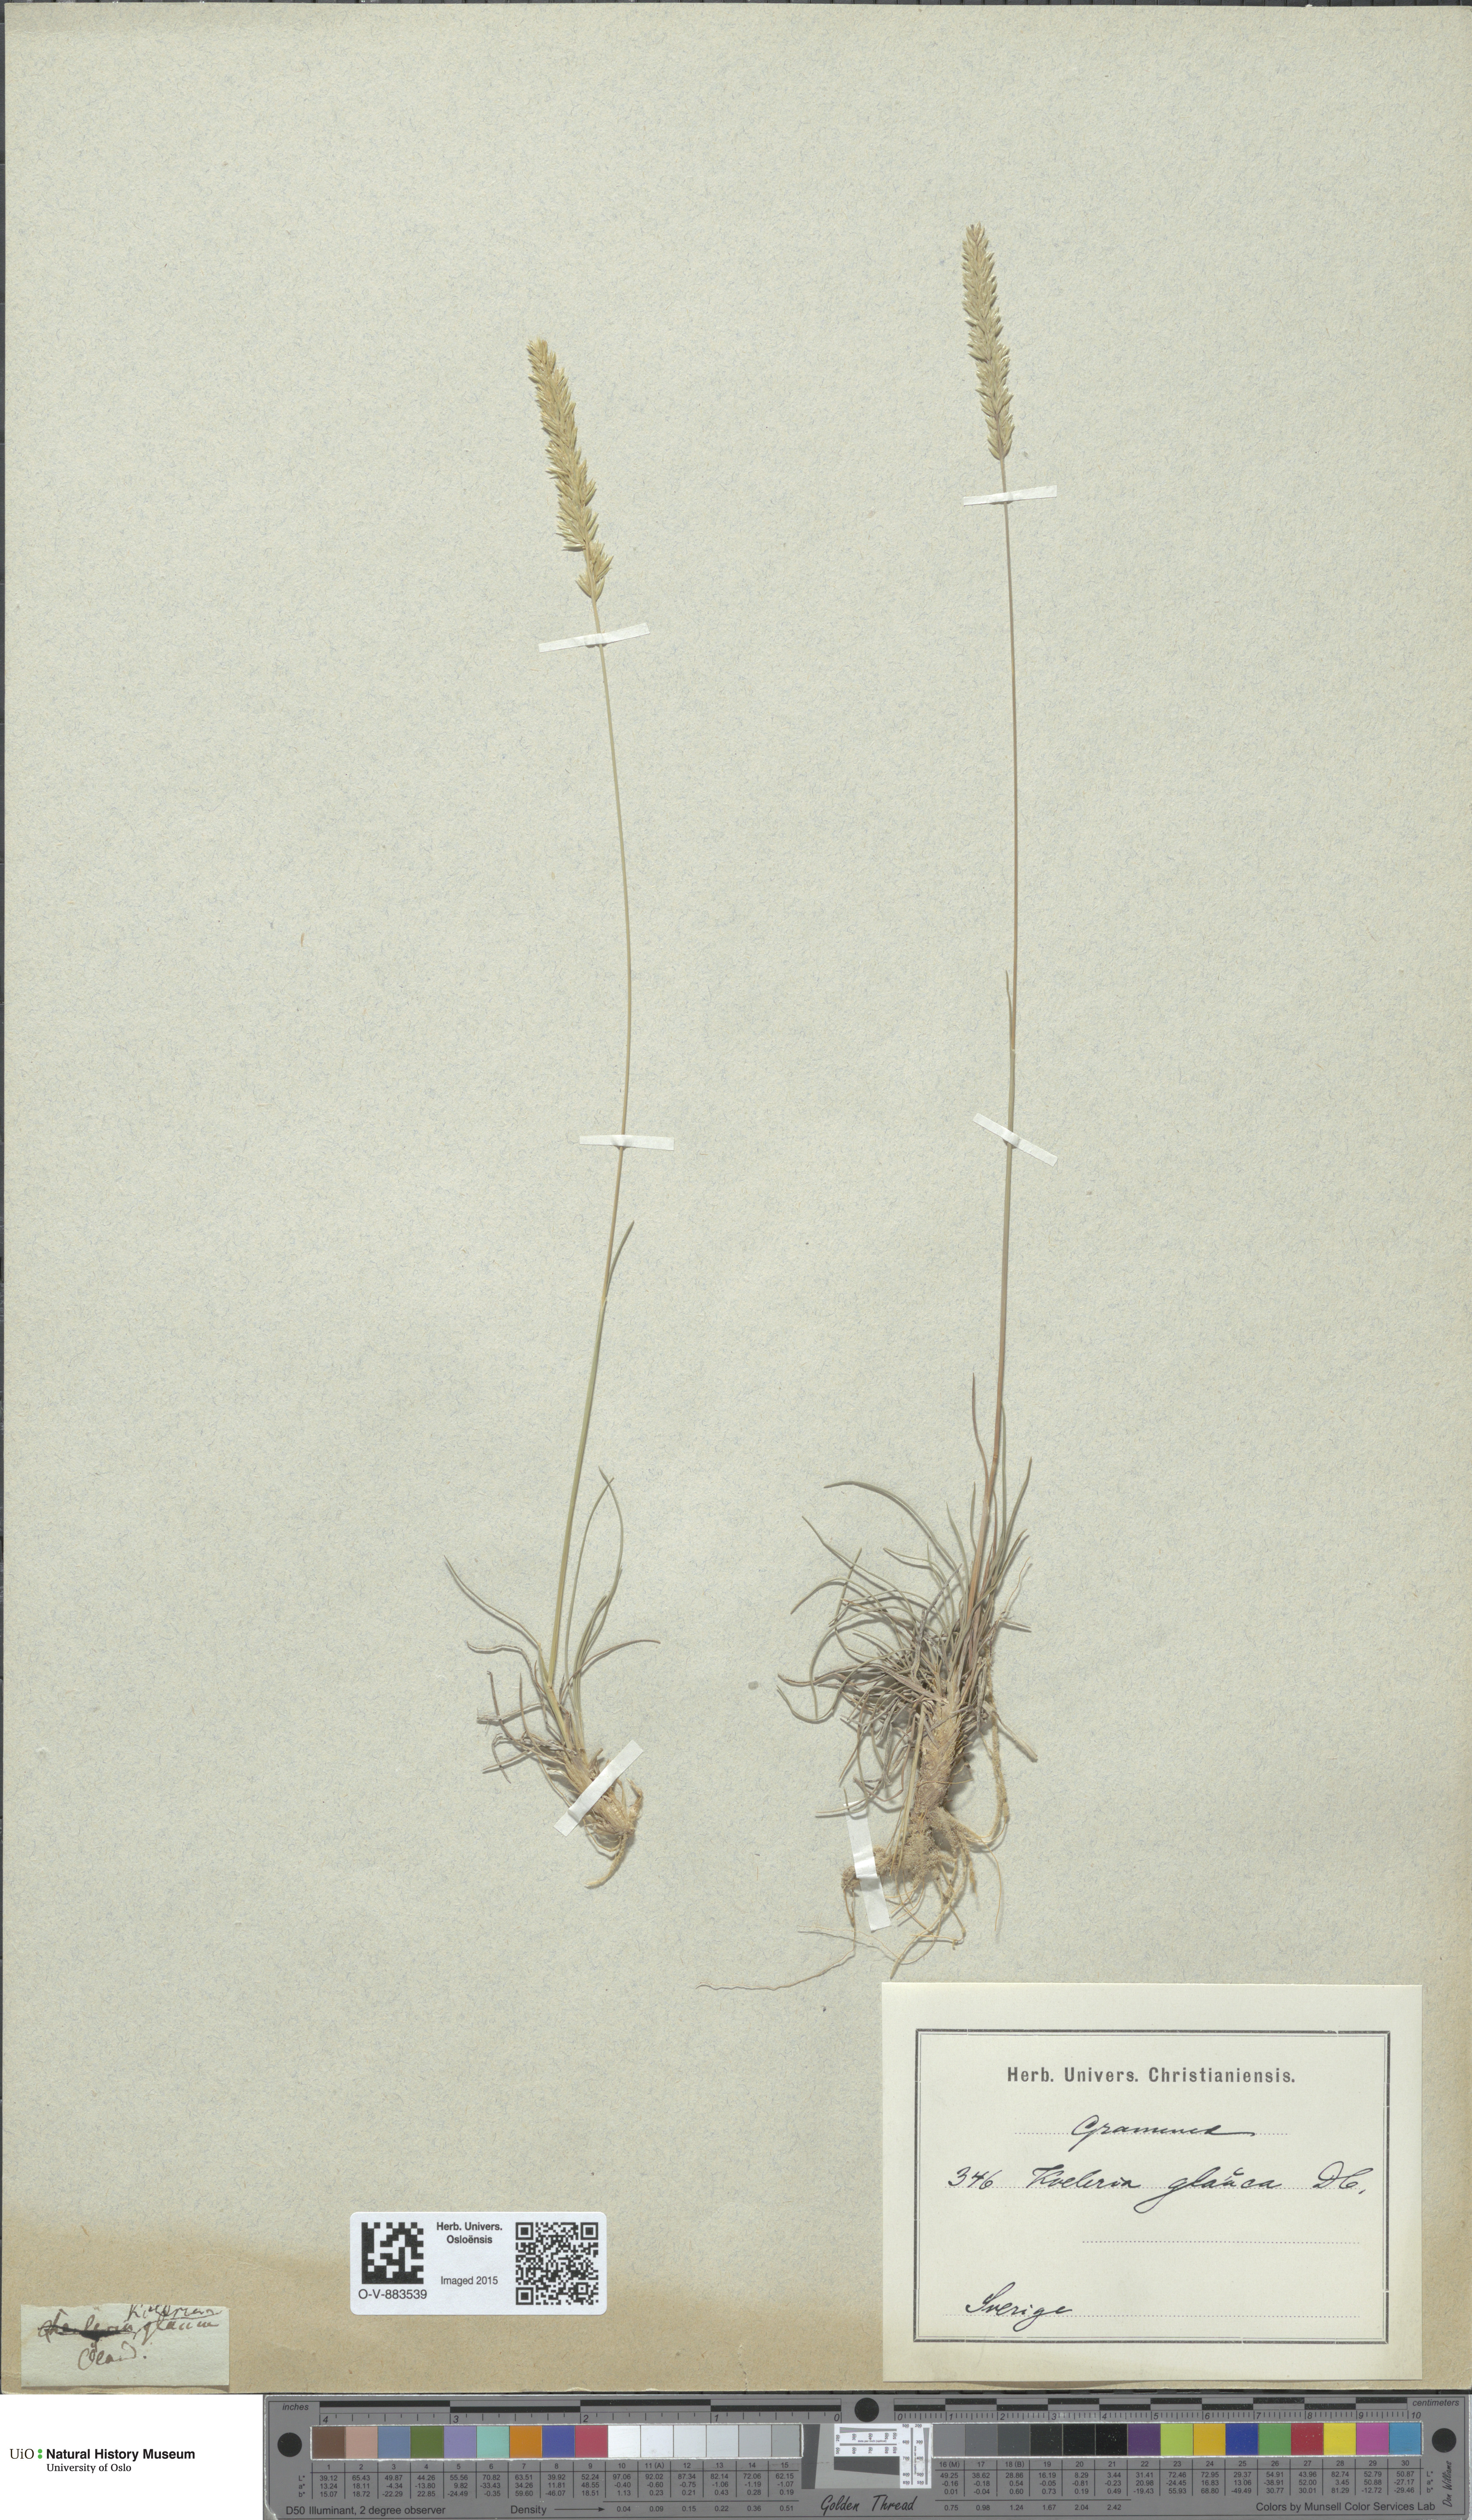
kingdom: Plantae
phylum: Tracheophyta
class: Liliopsida
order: Poales
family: Poaceae
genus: Koeleria
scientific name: Koeleria glauca
